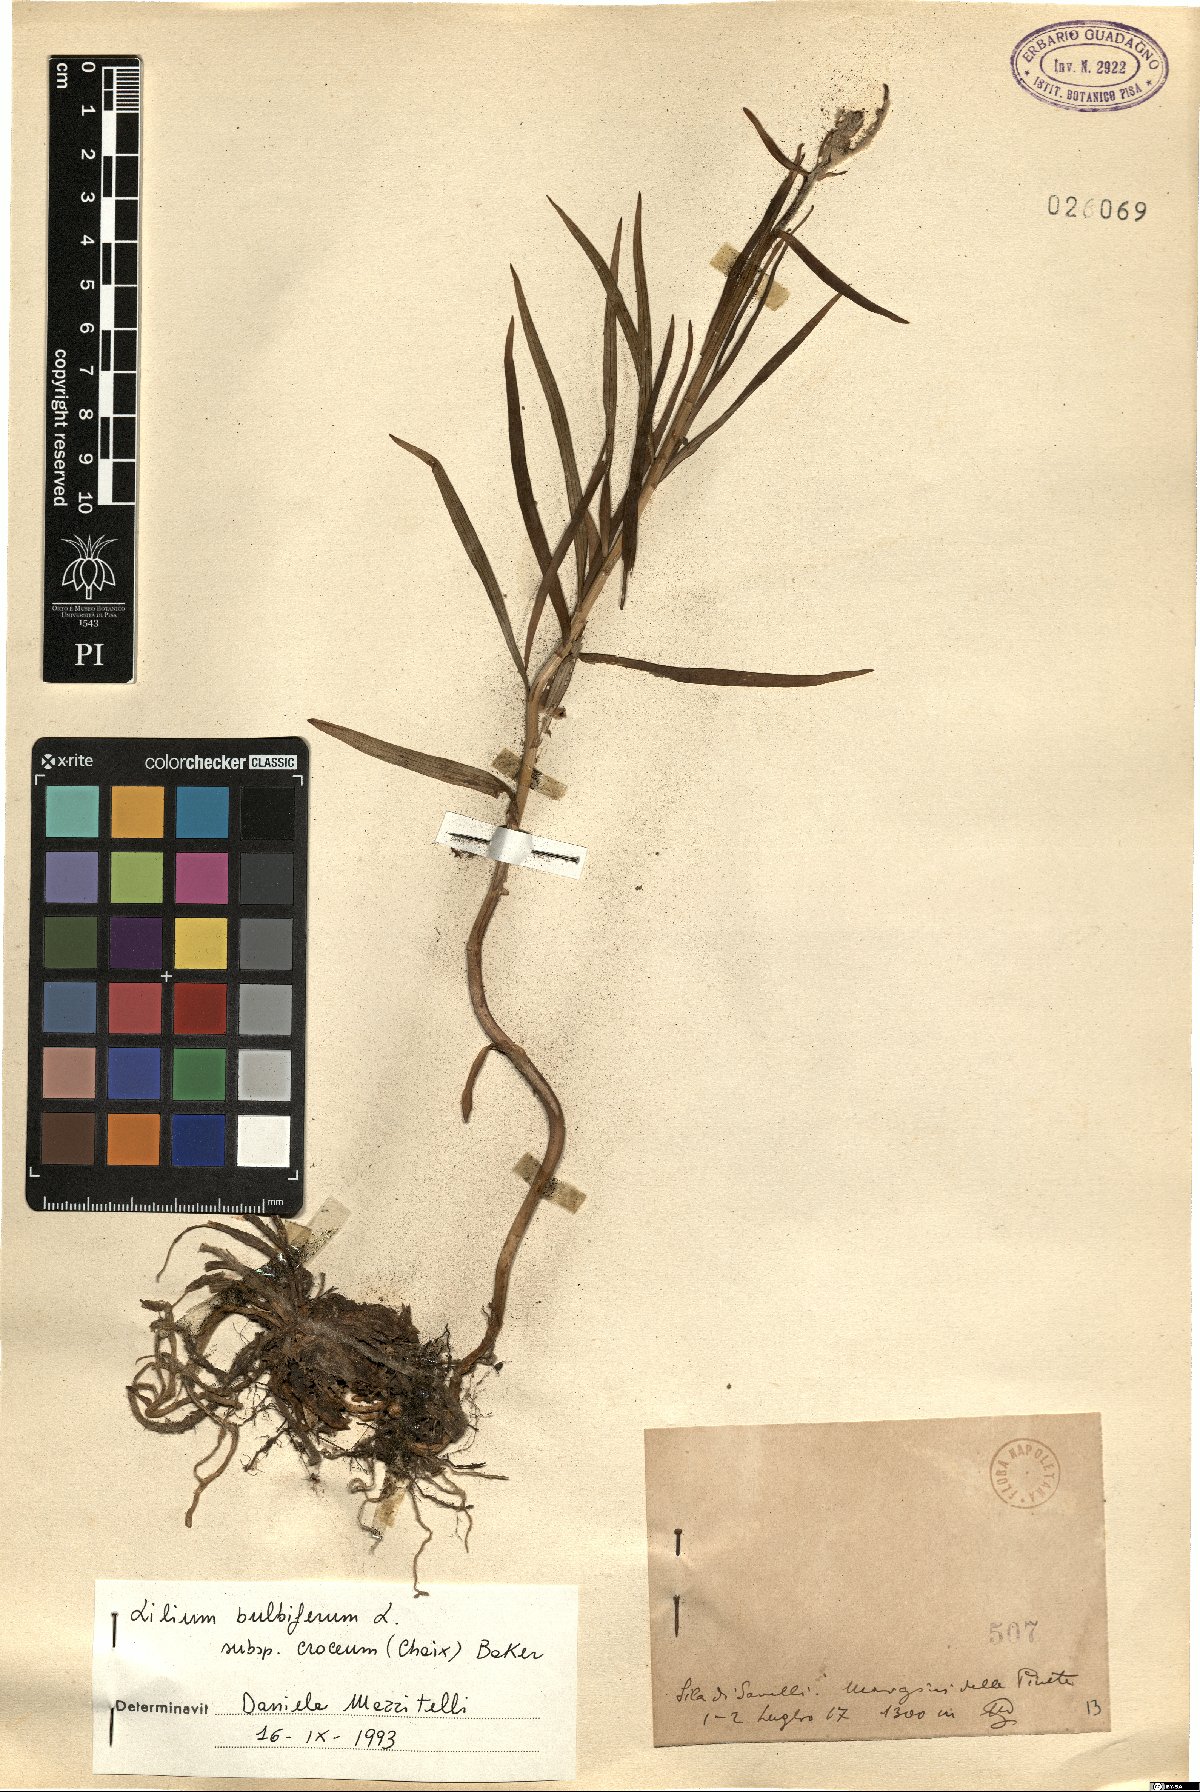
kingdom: Plantae
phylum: Tracheophyta
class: Liliopsida
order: Liliales
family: Liliaceae
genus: Lilium
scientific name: Lilium bulbiferum
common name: Orange lily
